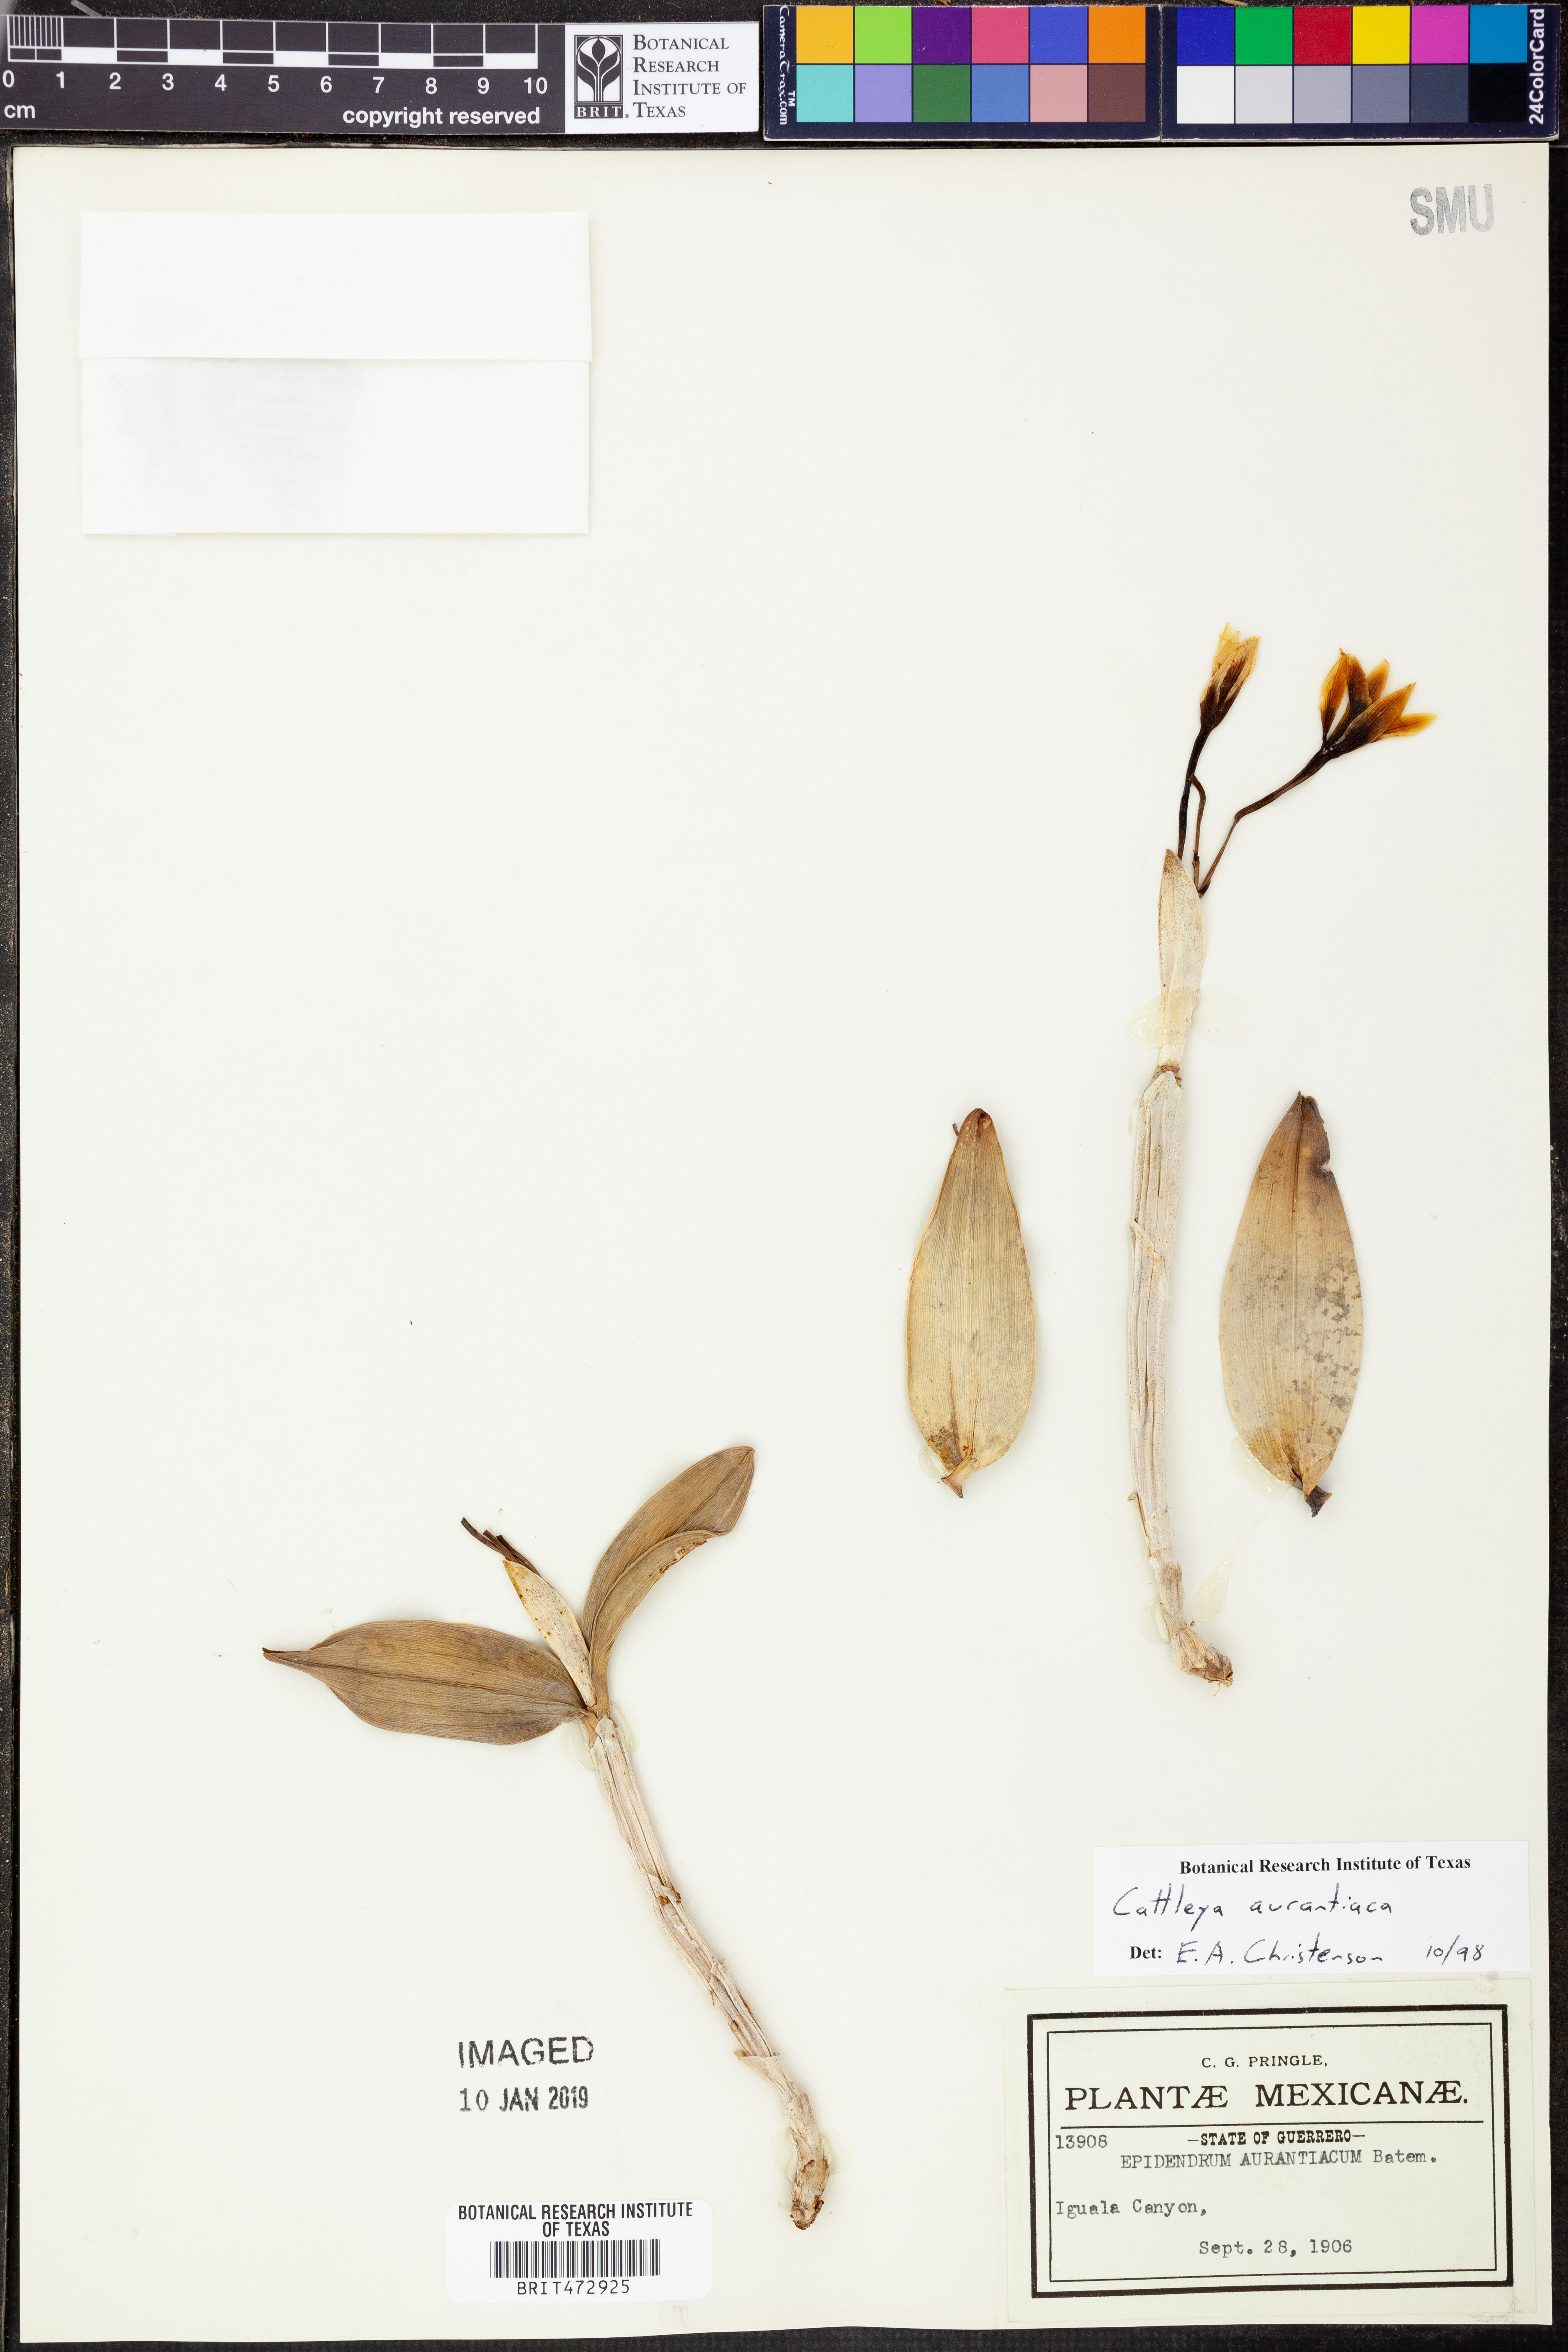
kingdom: Plantae
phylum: Tracheophyta
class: Liliopsida
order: Asparagales
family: Orchidaceae
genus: Guarianthe
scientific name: Guarianthe aurantiaca
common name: Orange cattleya
